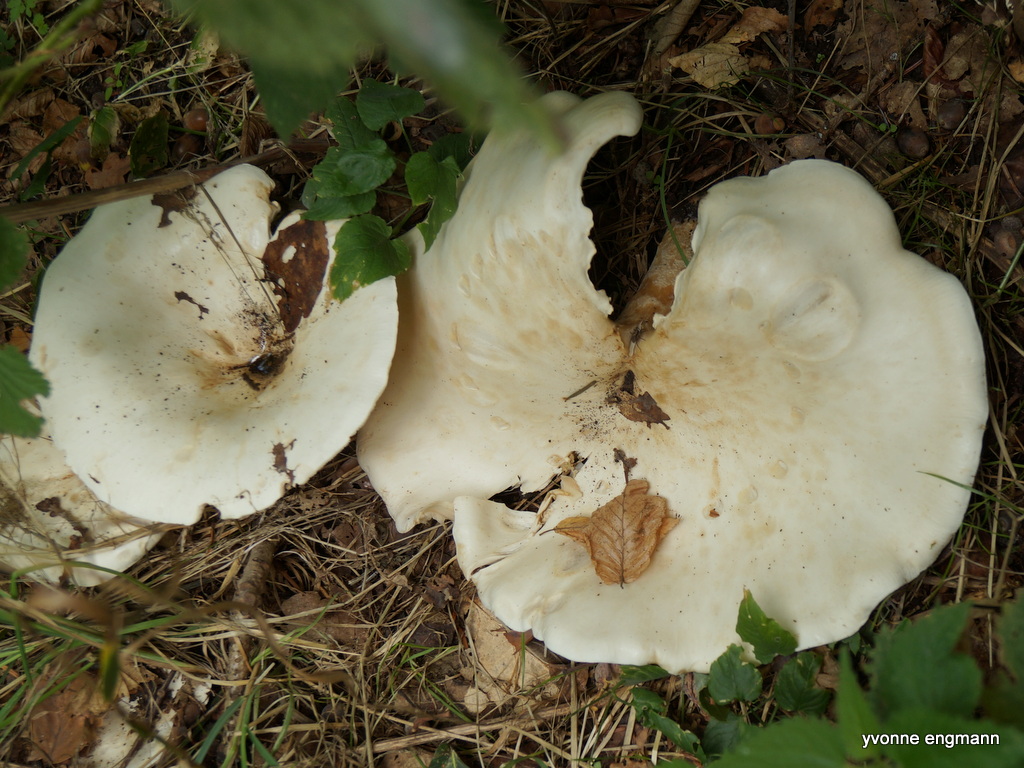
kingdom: Fungi
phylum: Basidiomycota
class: Agaricomycetes
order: Agaricales
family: Tricholomataceae
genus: Aspropaxillus
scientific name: Aspropaxillus giganteus
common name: kæmpe-tragtridderhat
